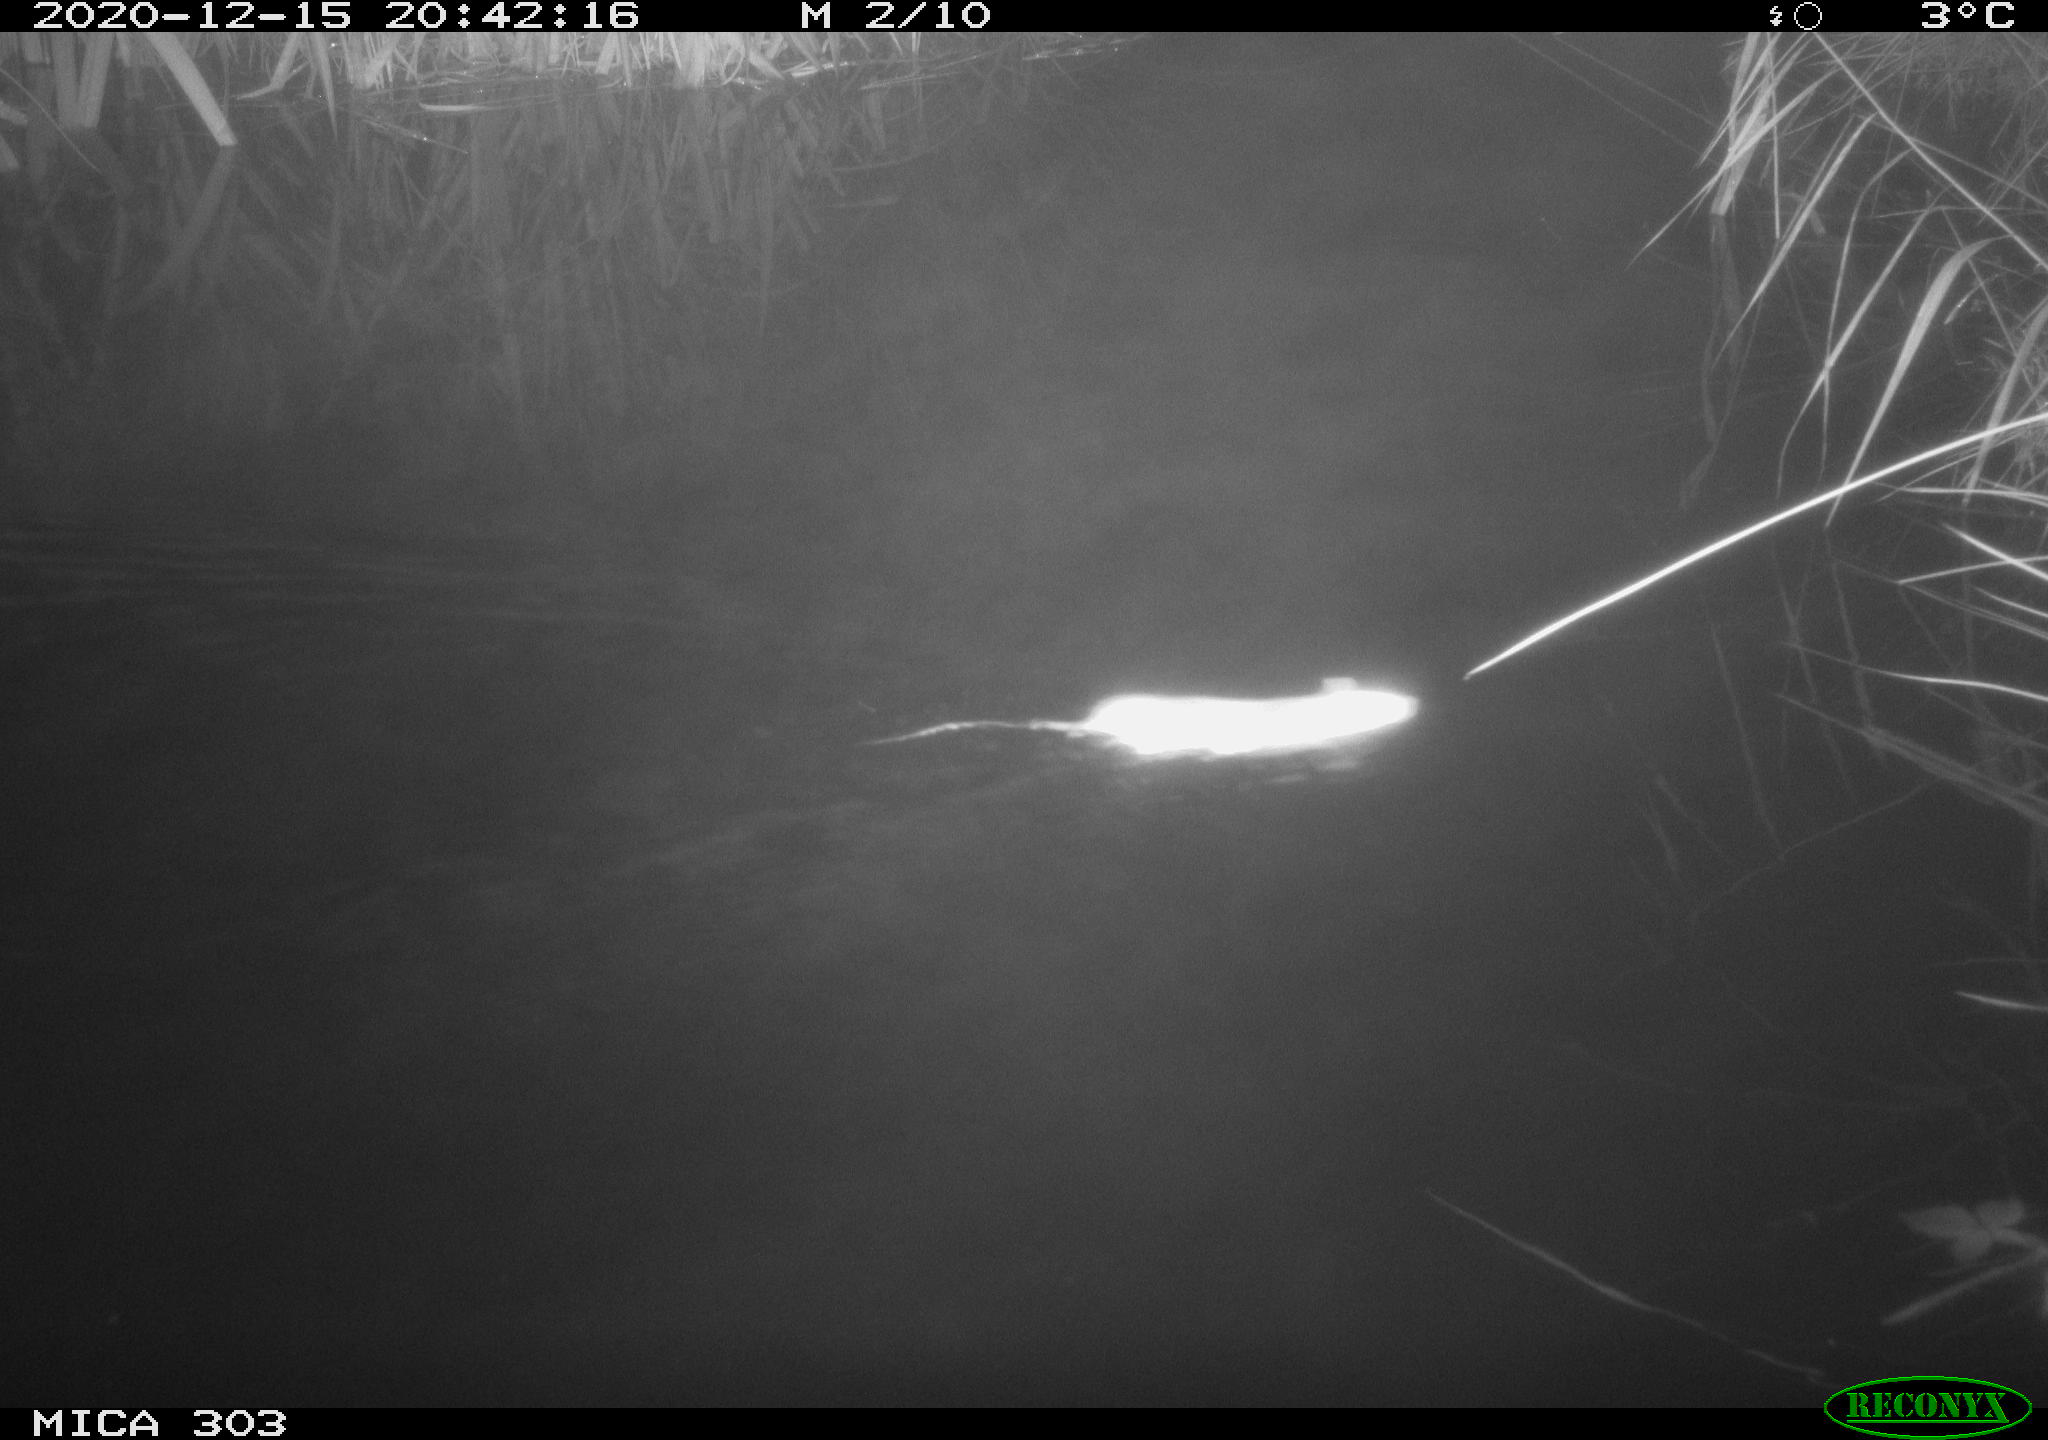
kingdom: Animalia
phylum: Chordata
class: Mammalia
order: Rodentia
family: Muridae
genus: Rattus
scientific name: Rattus norvegicus
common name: Brown rat
